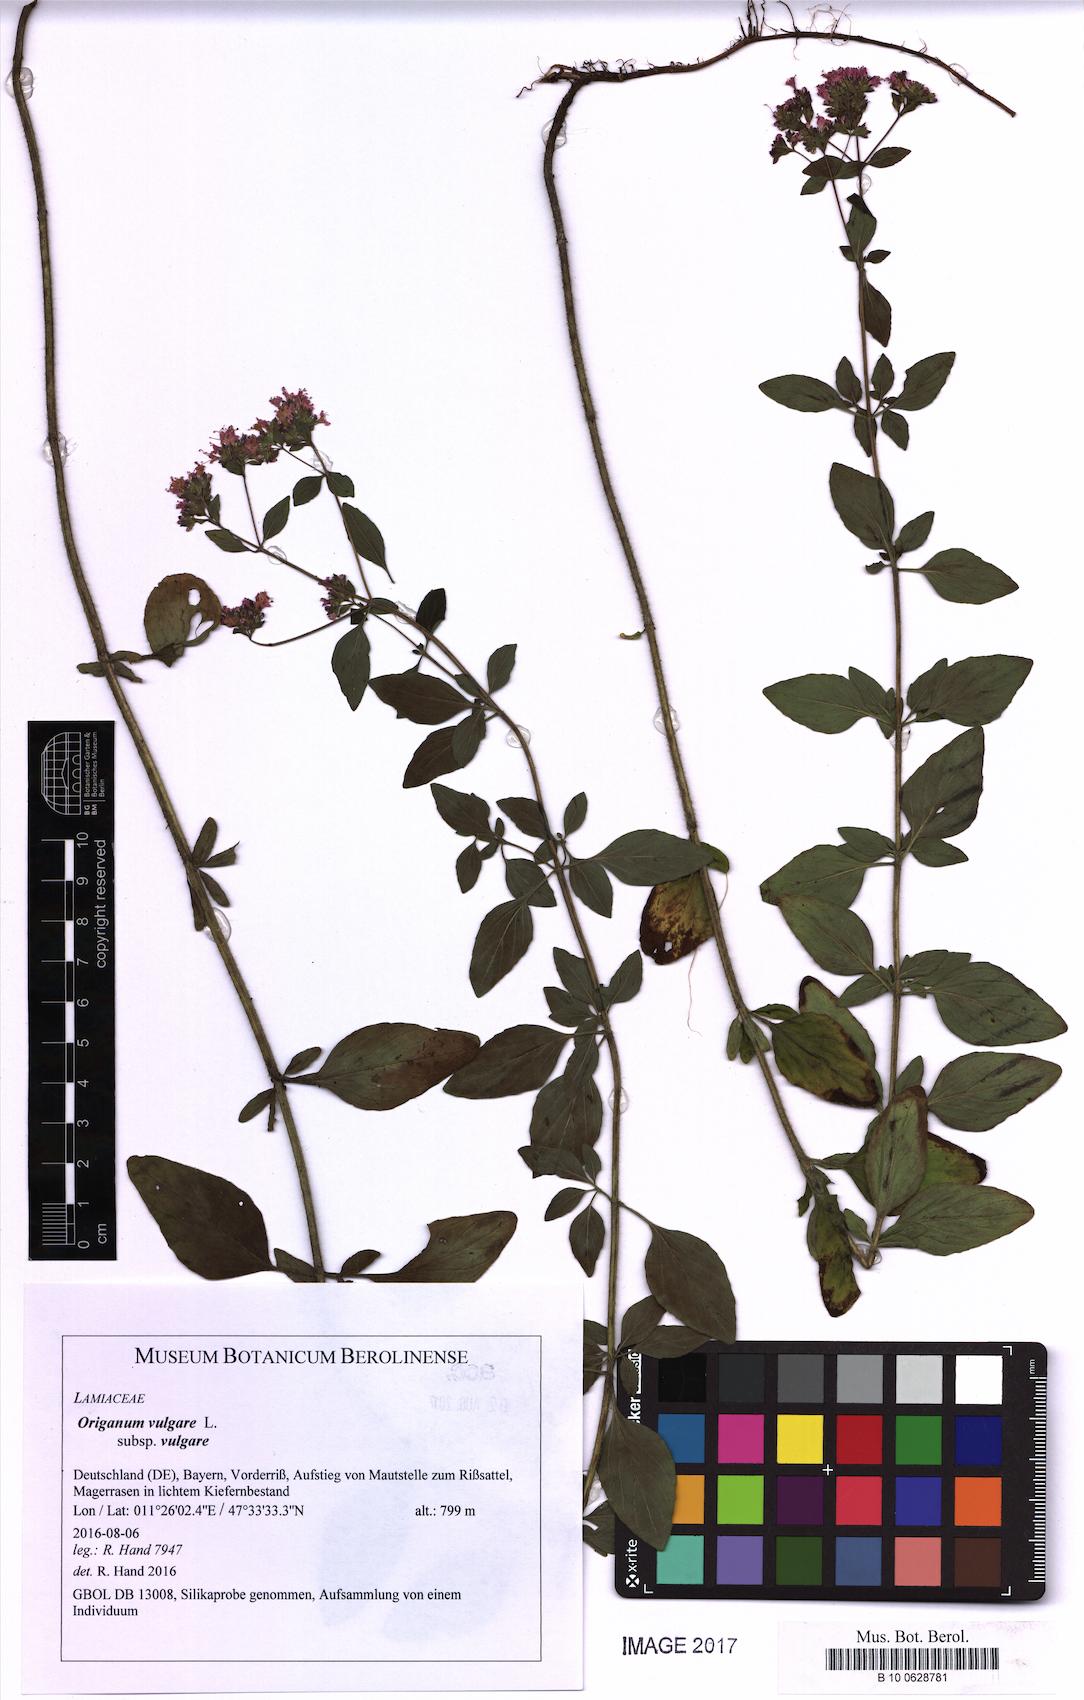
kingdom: Plantae
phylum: Tracheophyta
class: Magnoliopsida
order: Lamiales
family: Lamiaceae
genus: Origanum
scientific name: Origanum vulgare
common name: Wild marjoram
